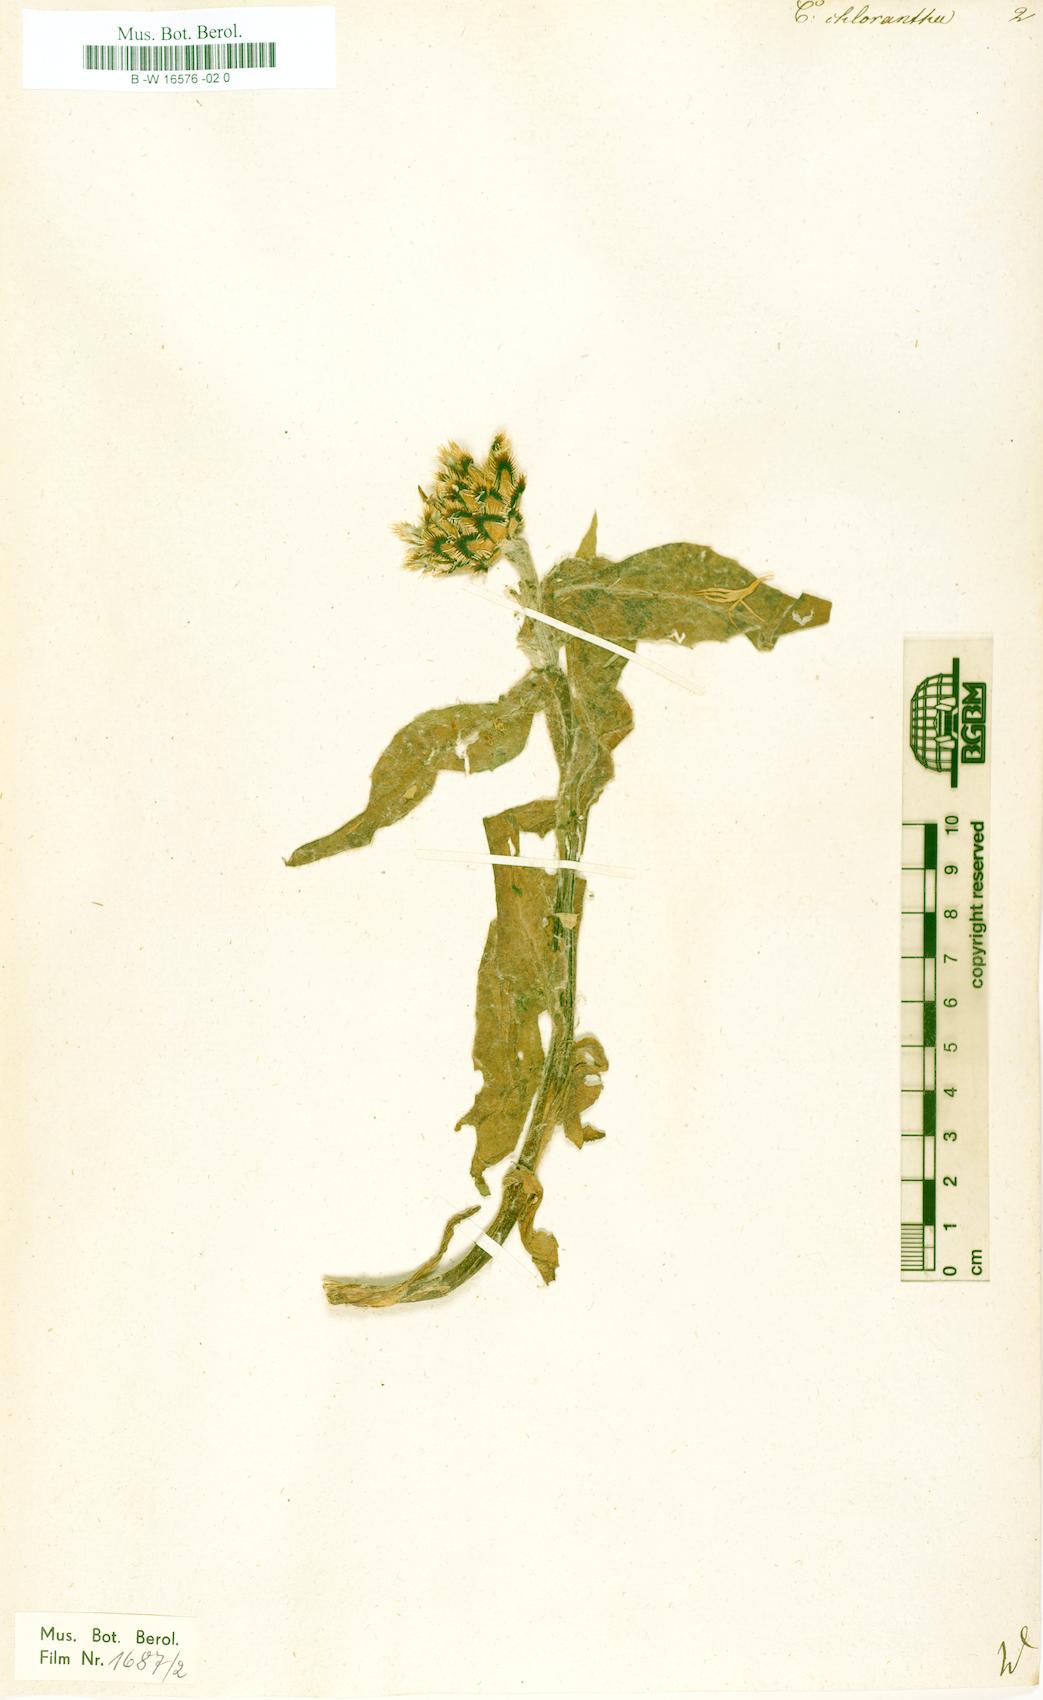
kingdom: Plantae
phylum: Tracheophyta
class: Magnoliopsida
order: Asterales
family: Asteraceae
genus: Centaurea
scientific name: Centaurea cheiranthifolia
